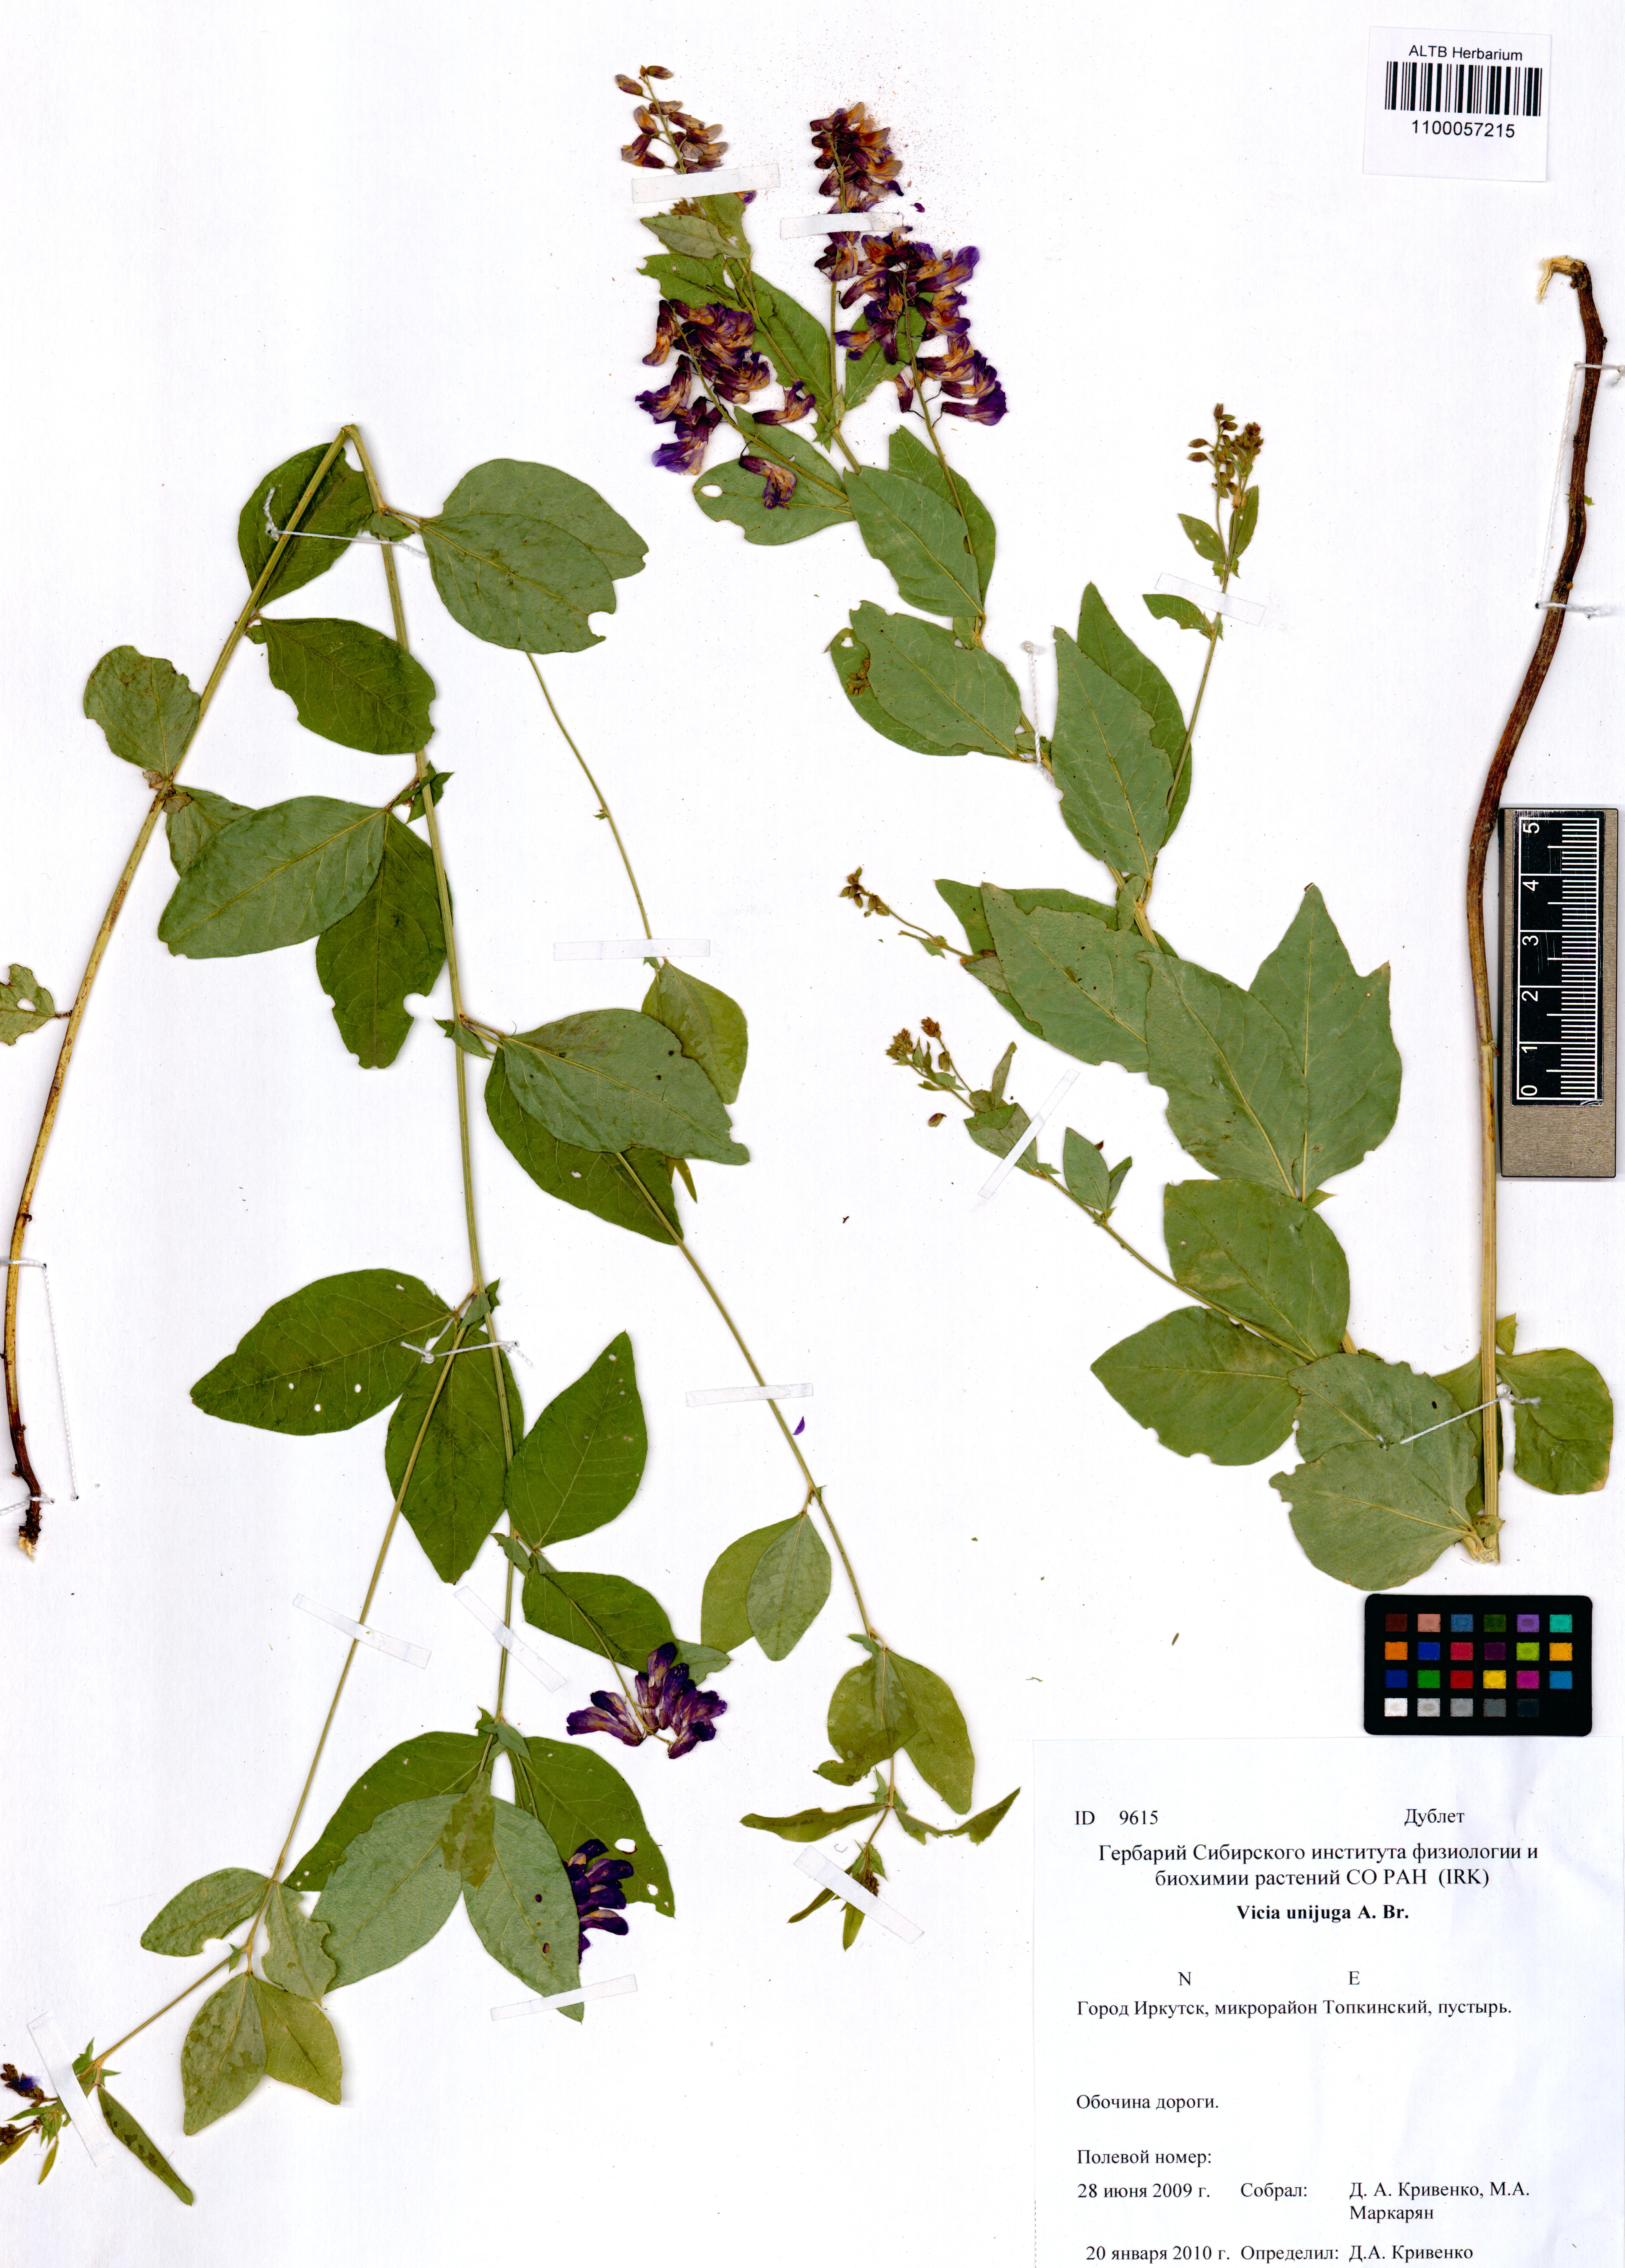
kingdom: Plantae
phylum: Tracheophyta
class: Magnoliopsida
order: Fabales
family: Fabaceae
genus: Vicia
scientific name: Vicia unijuga
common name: Two-leaf vetch
